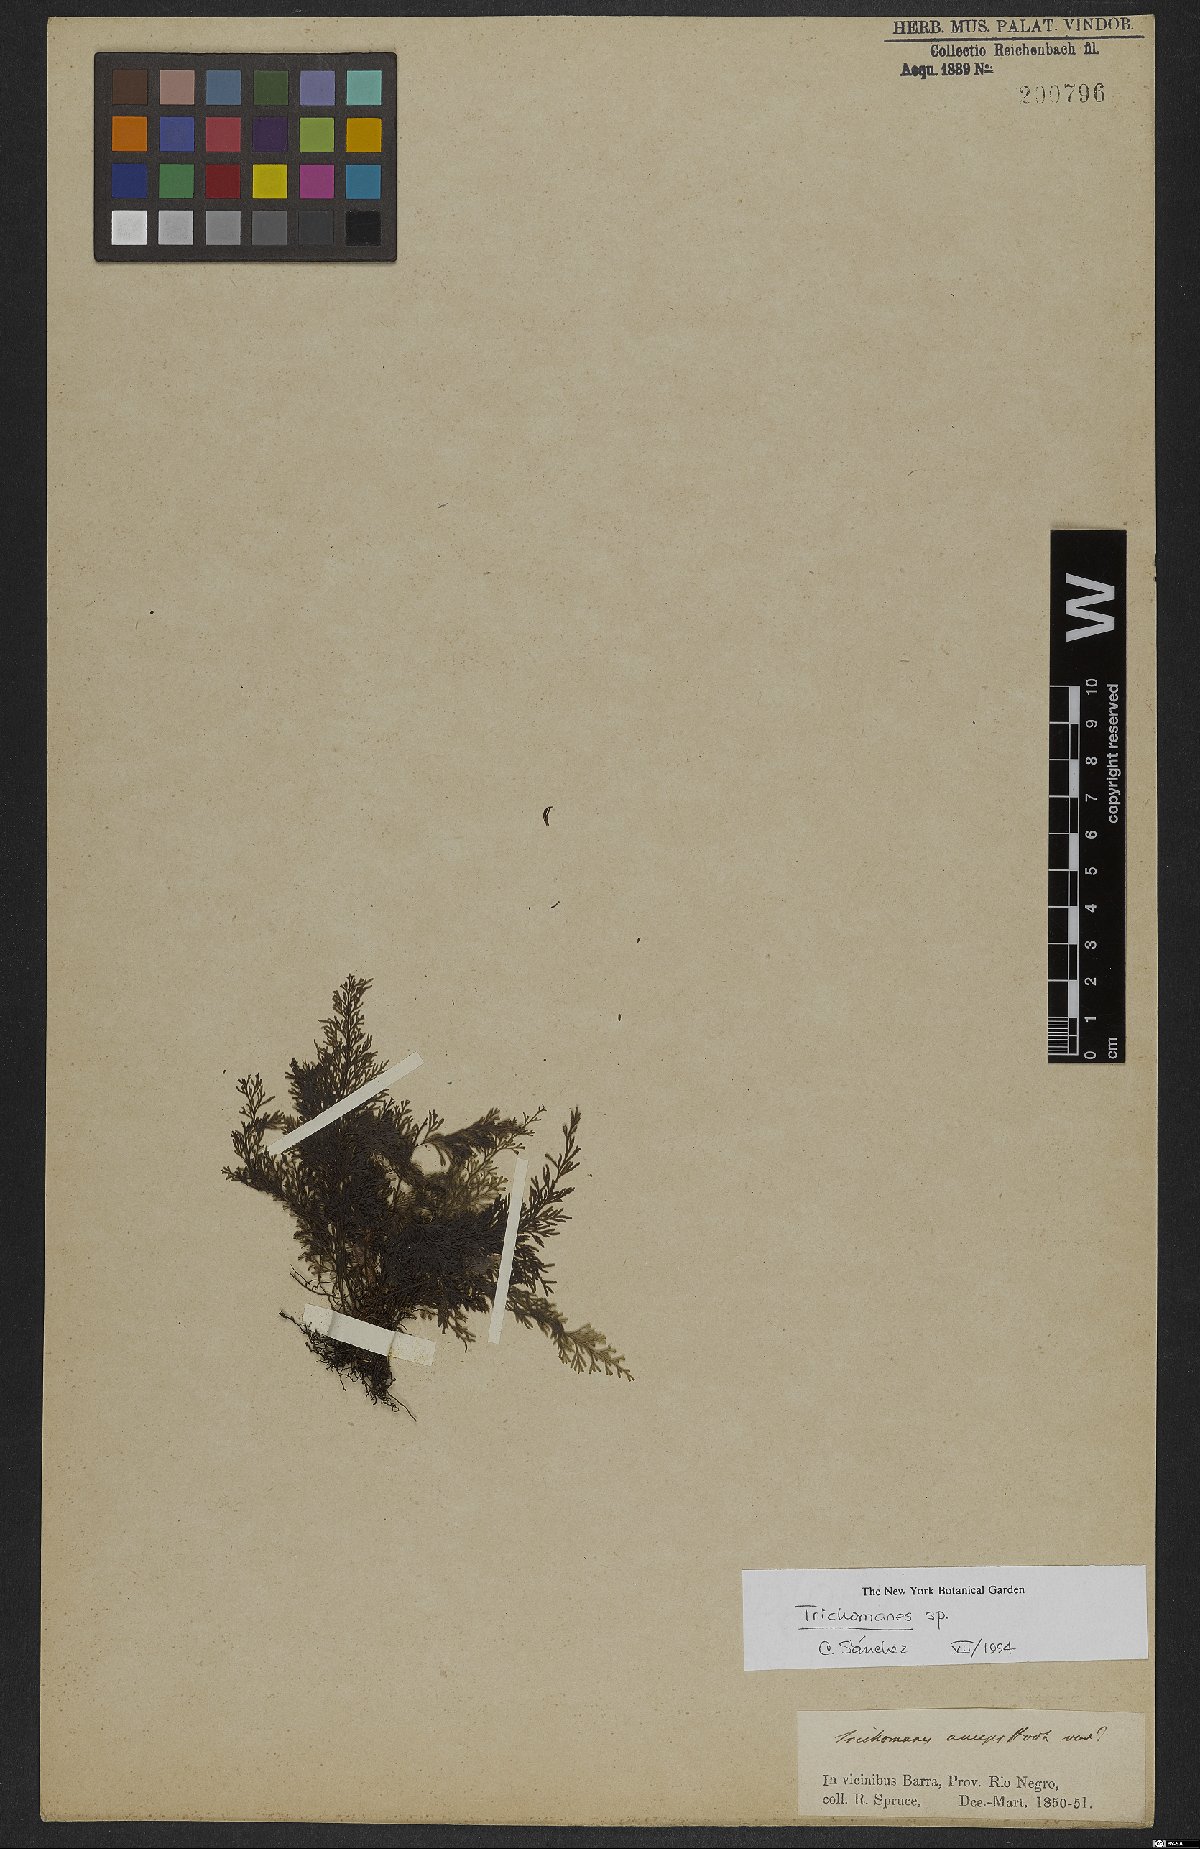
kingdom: Plantae
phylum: Tracheophyta
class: Polypodiopsida
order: Hymenophyllales
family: Hymenophyllaceae
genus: Trichomanes
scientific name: Trichomanes
